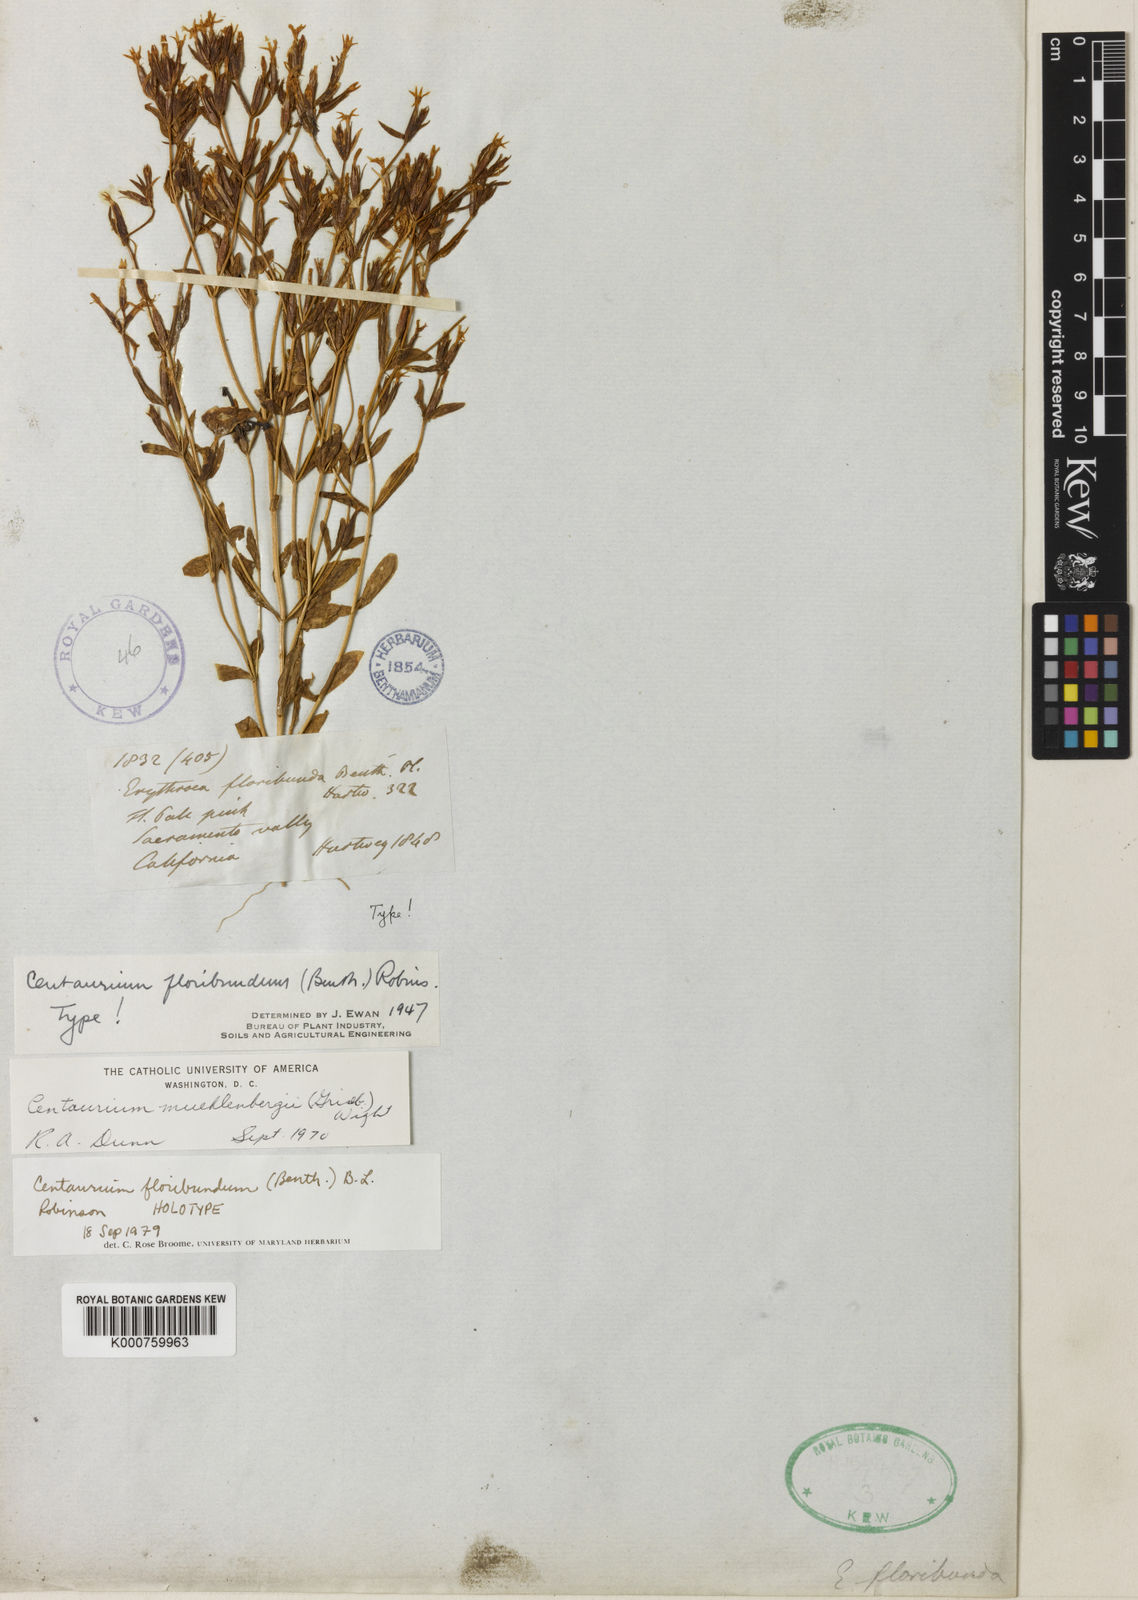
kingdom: Plantae
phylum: Tracheophyta
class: Magnoliopsida
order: Gentianales
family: Gentianaceae
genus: Zeltnera
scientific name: Zeltnera muhlenbergii
